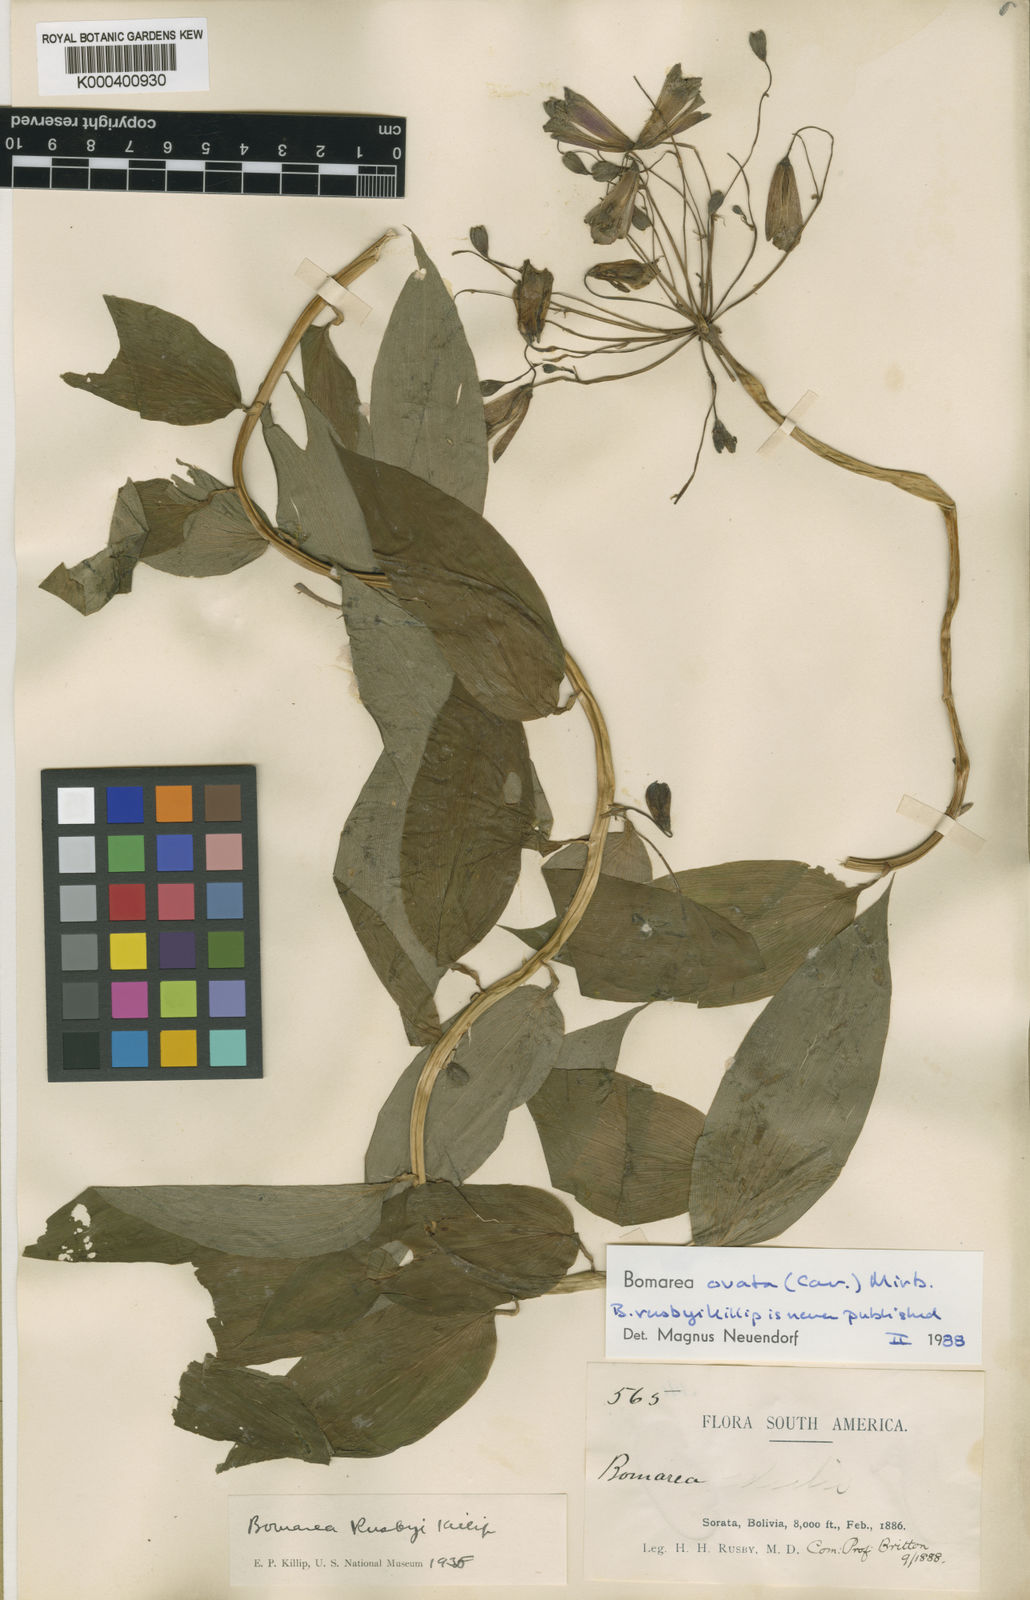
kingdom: Plantae
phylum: Tracheophyta
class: Liliopsida
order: Liliales
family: Alstroemeriaceae
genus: Bomarea
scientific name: Bomarea ovata
